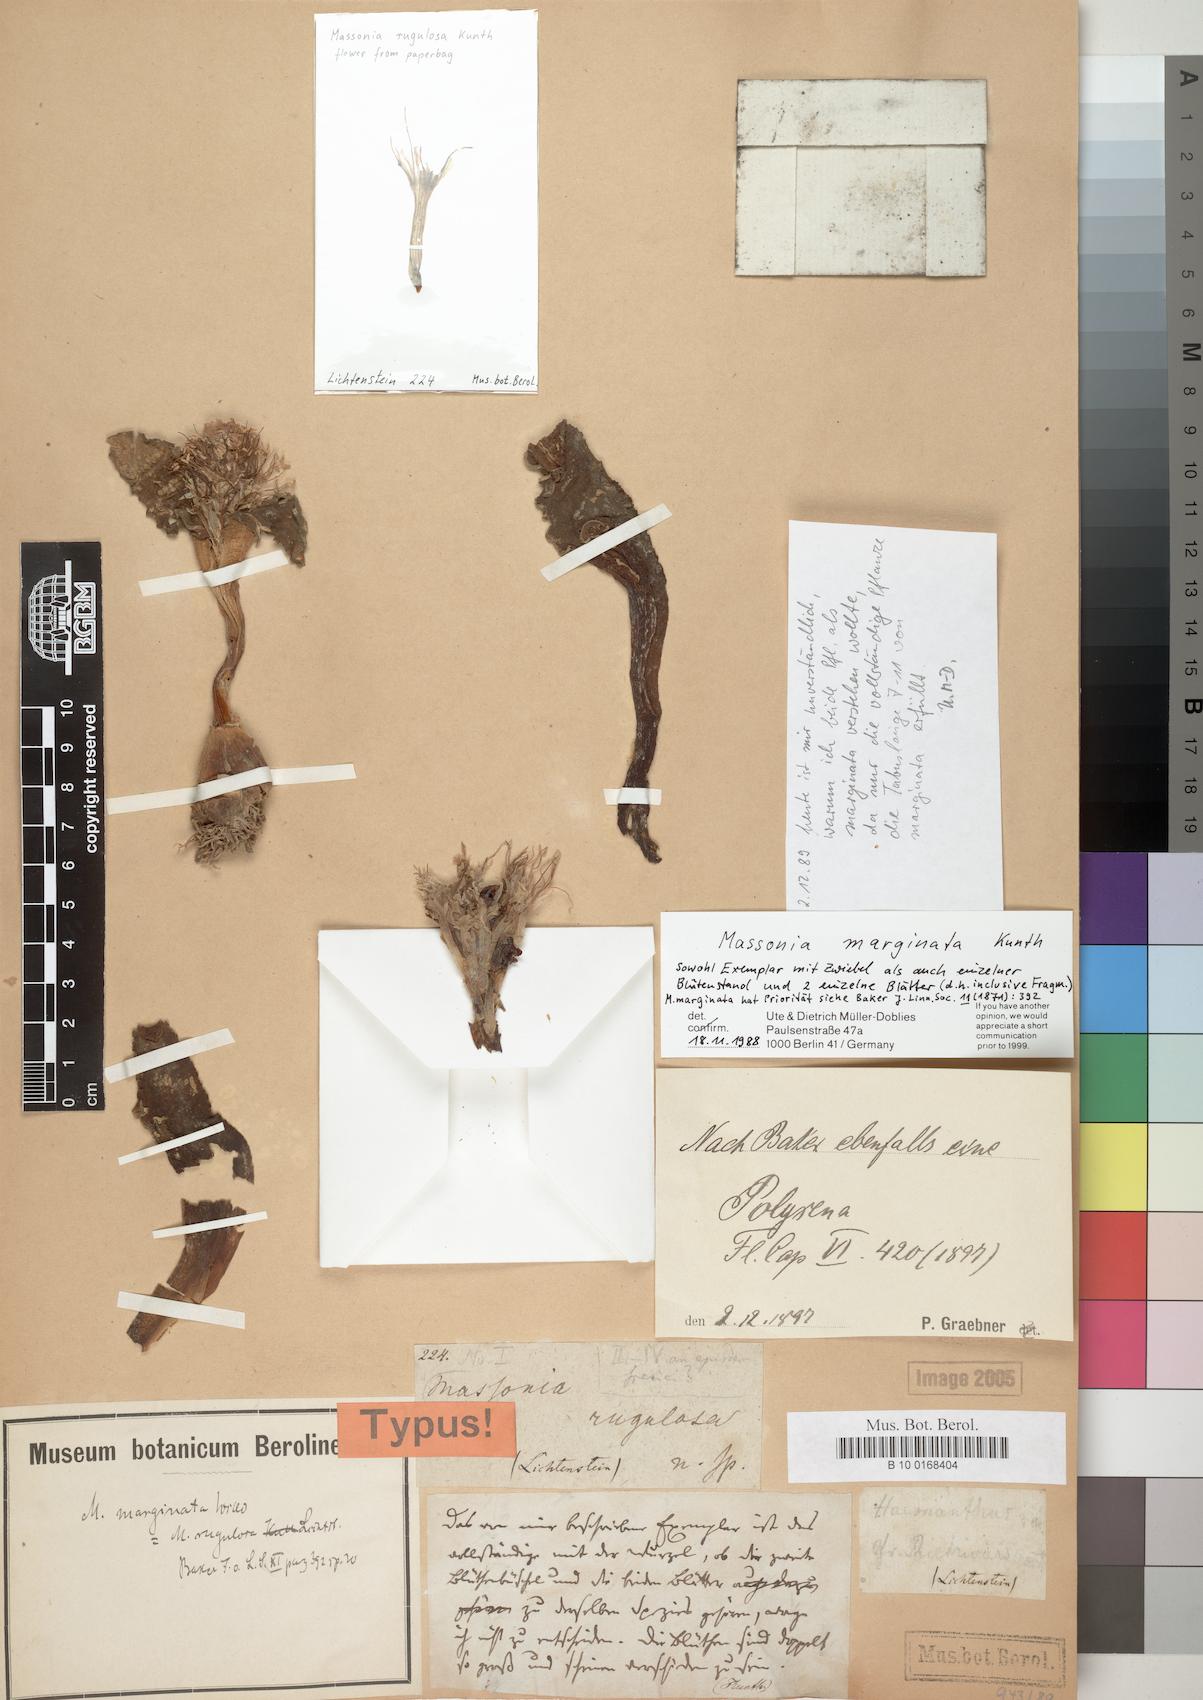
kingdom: Plantae
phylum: Tracheophyta
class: Liliopsida
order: Asparagales
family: Asparagaceae
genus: Daubenya
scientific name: Daubenya marginata
